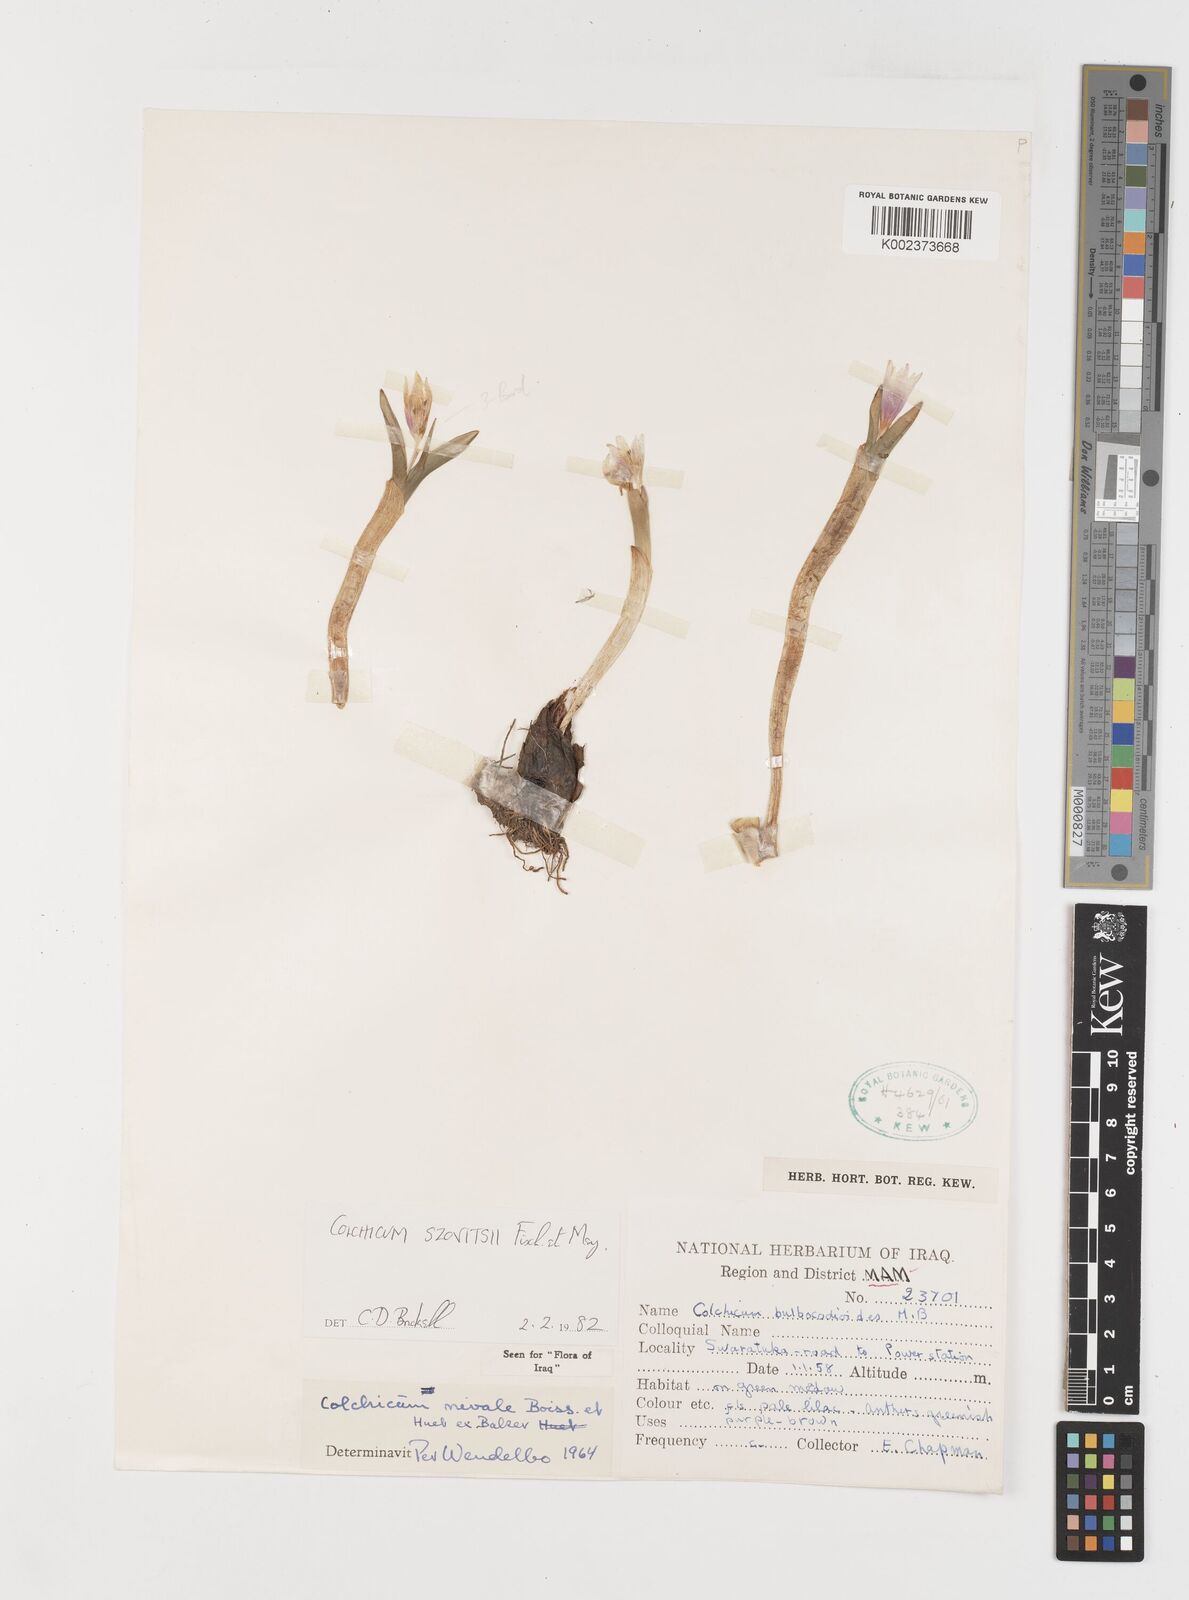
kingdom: Plantae
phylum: Tracheophyta
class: Liliopsida
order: Liliales
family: Colchicaceae
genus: Colchicum
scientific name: Colchicum szovitsii
